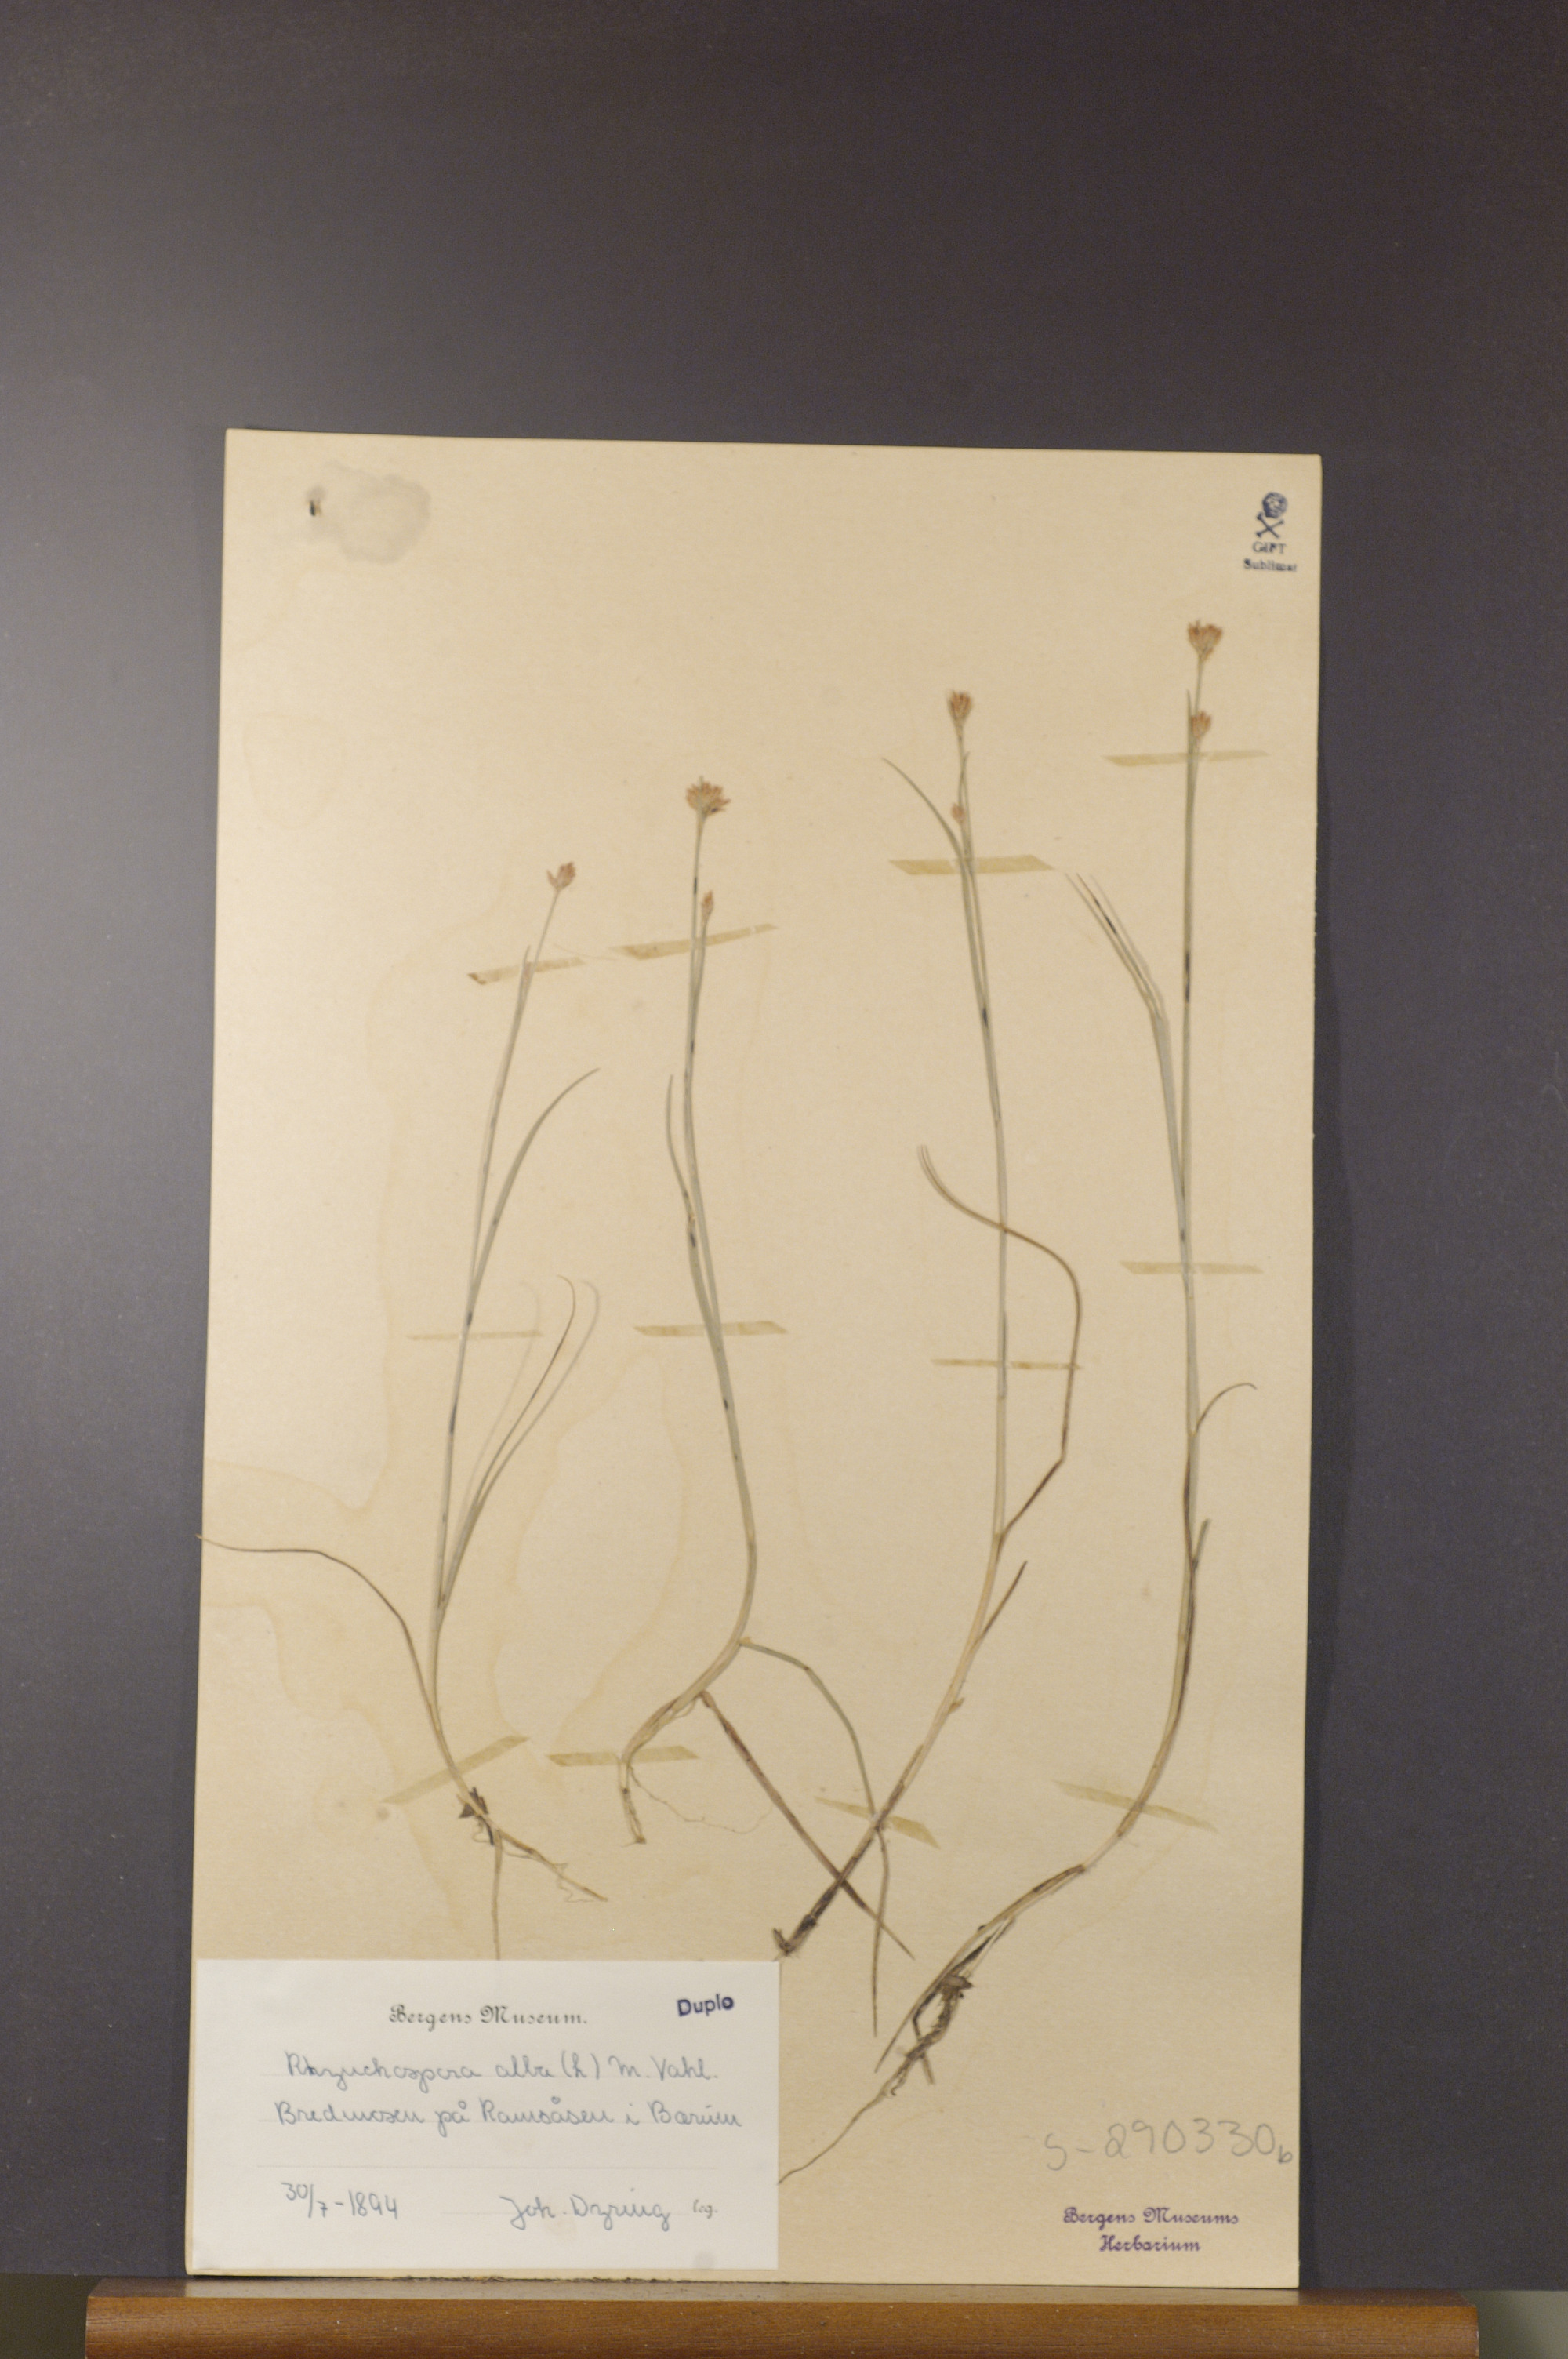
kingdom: Plantae
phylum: Tracheophyta
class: Liliopsida
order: Poales
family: Cyperaceae
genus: Rhynchospora
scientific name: Rhynchospora alba
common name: White beak-sedge
